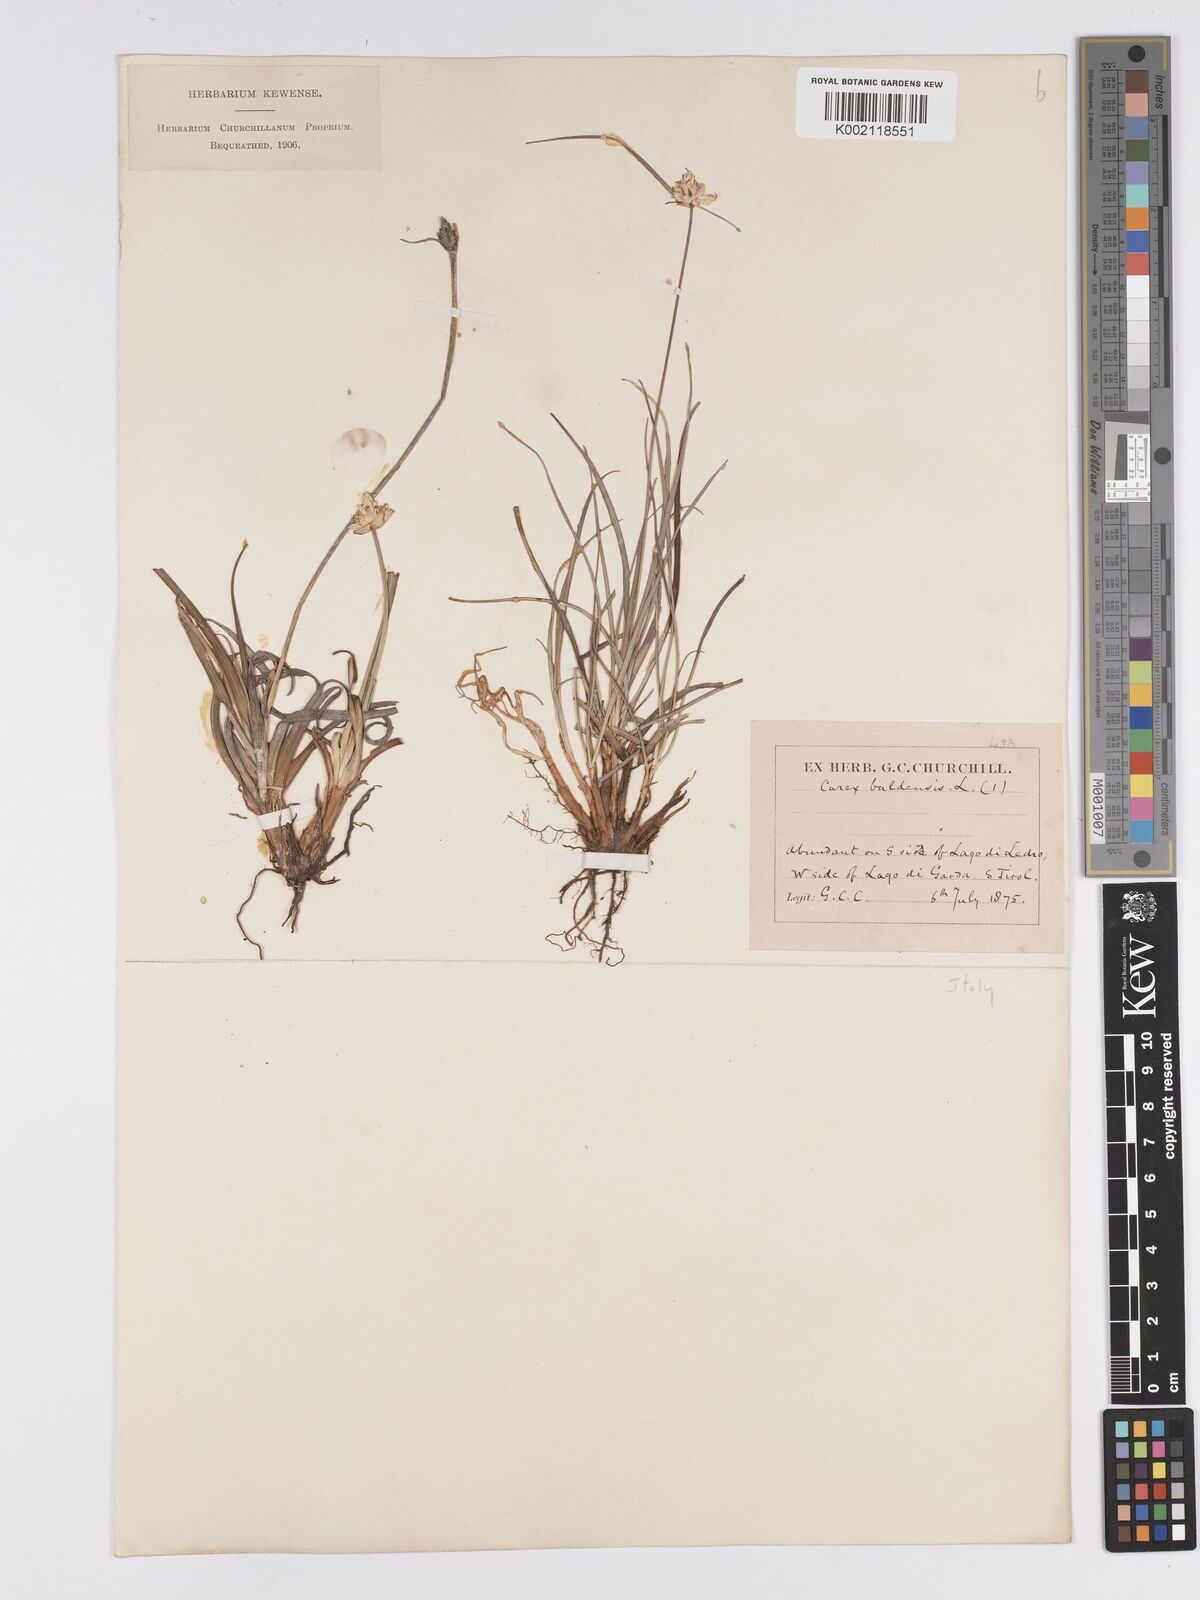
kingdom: Plantae
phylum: Tracheophyta
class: Liliopsida
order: Poales
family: Cyperaceae
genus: Carex
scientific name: Carex baldensis
